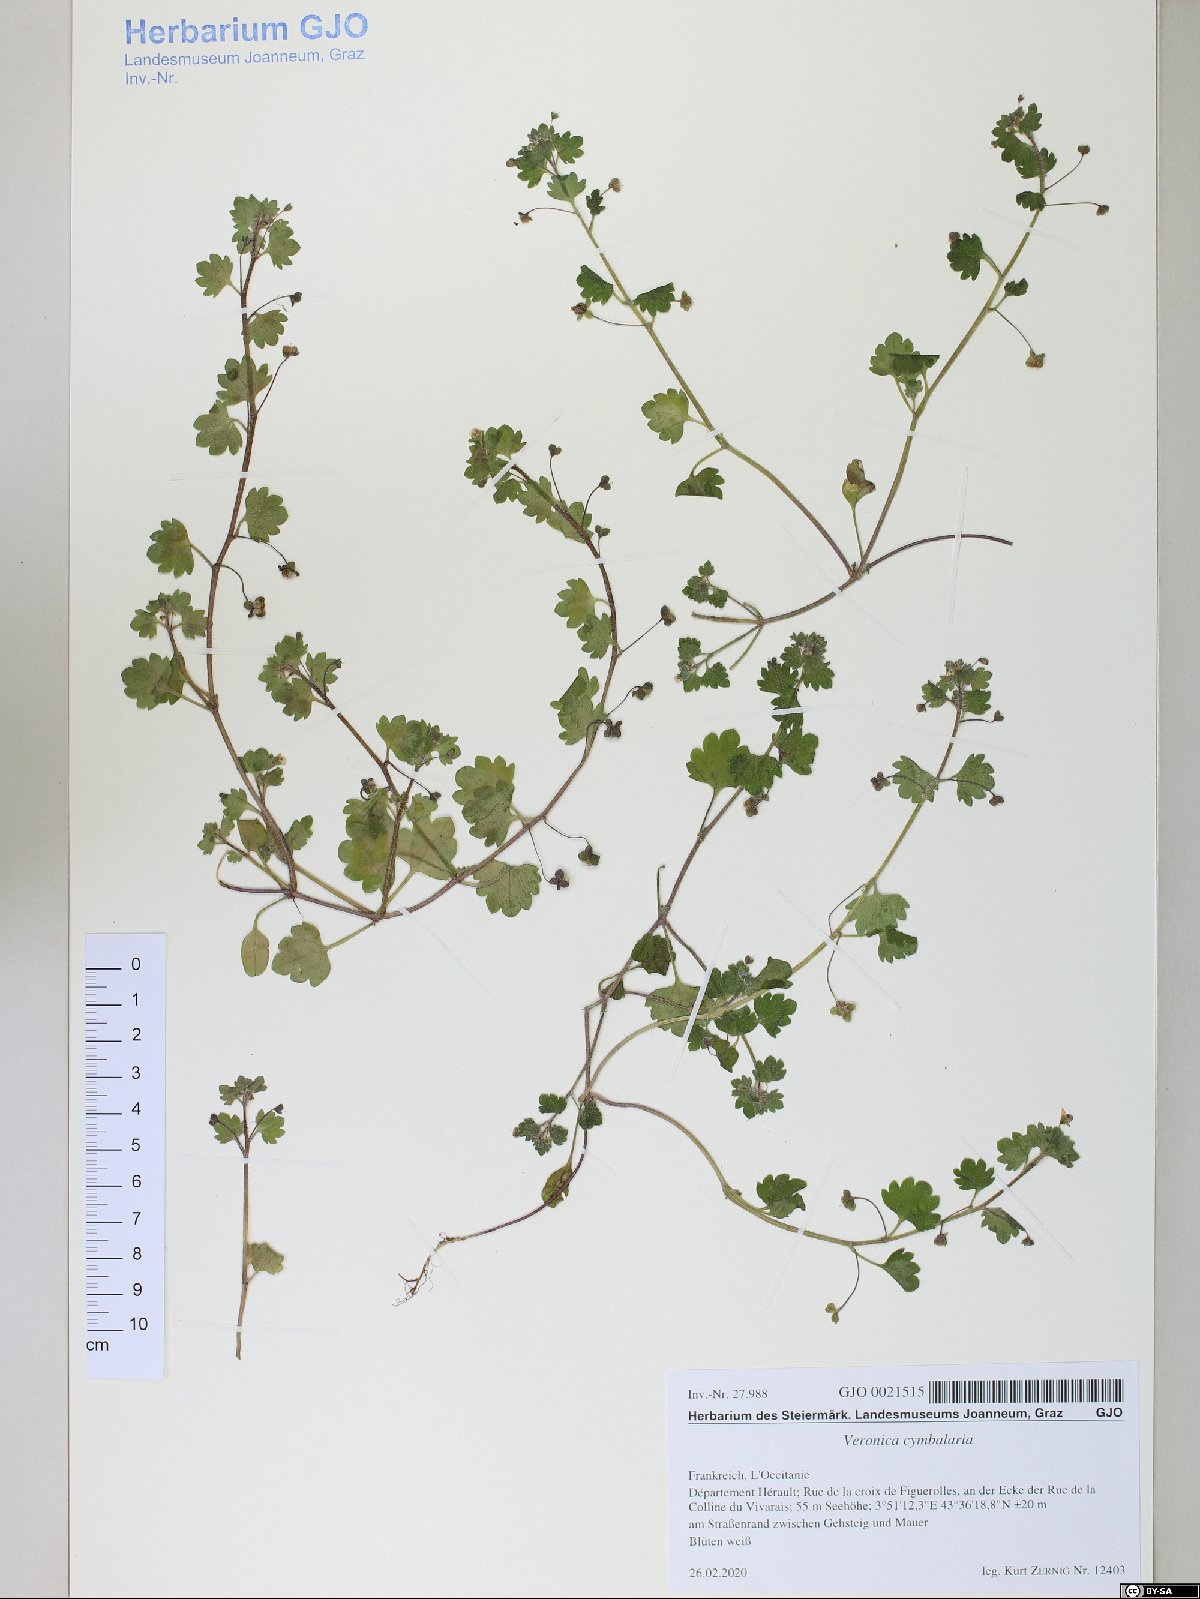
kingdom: Plantae
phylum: Tracheophyta
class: Magnoliopsida
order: Lamiales
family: Plantaginaceae
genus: Veronica
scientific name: Veronica cymbalaria
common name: Pale speedwell
